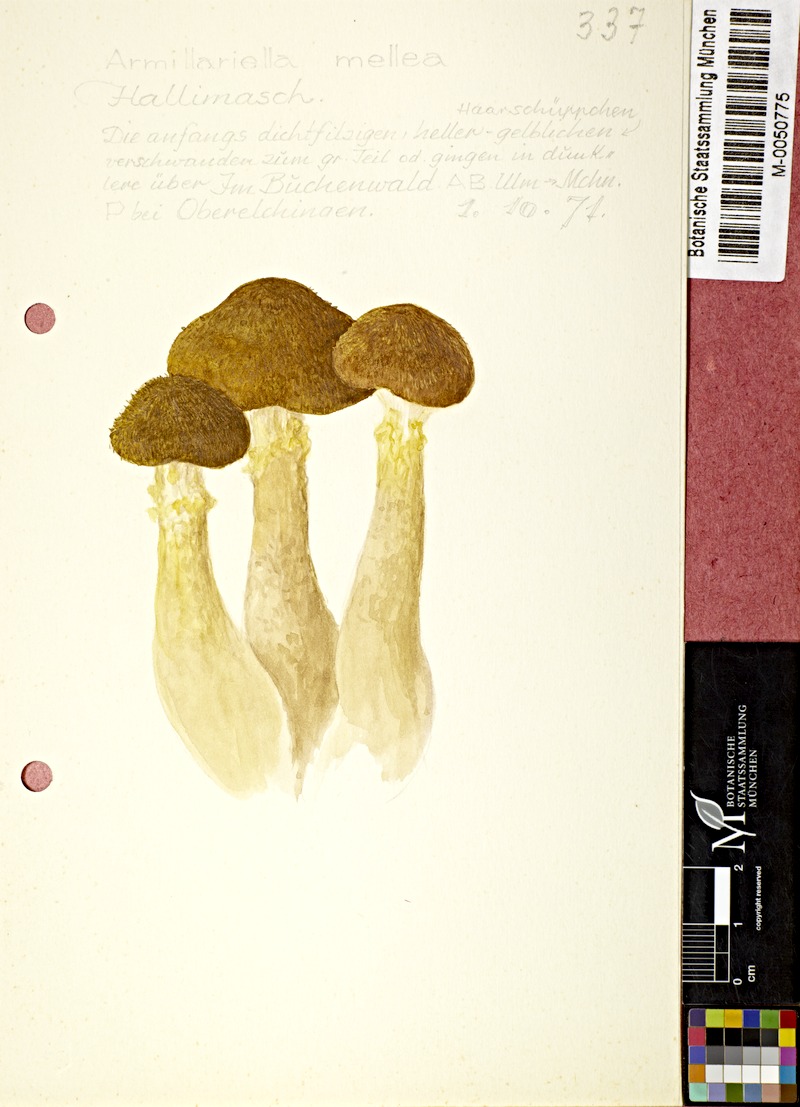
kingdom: Fungi
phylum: Basidiomycota
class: Agaricomycetes
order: Agaricales
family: Physalacriaceae
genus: Armillaria
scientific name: Armillaria mellea
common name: Honey fungus
